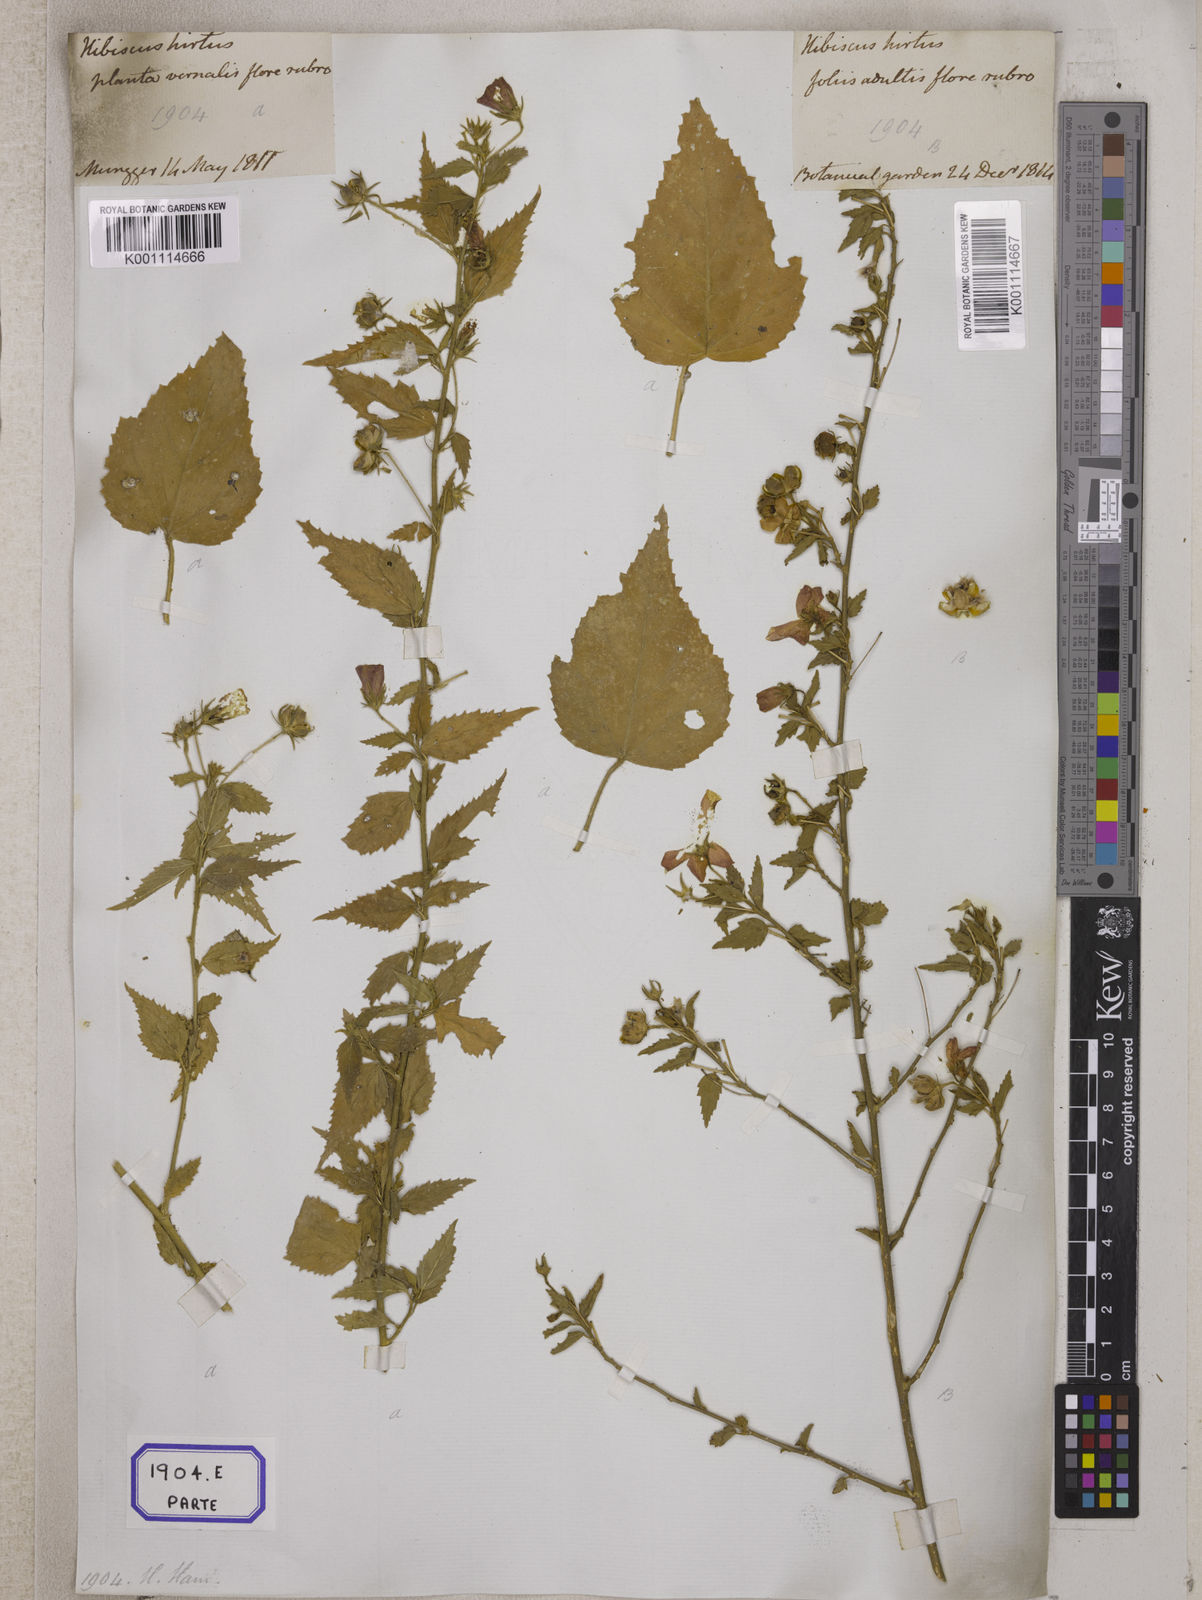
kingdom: Plantae
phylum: Tracheophyta
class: Magnoliopsida
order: Malvales
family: Malvaceae
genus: Hibiscus
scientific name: Hibiscus phoeniceus
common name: Brazilian rosemallow
